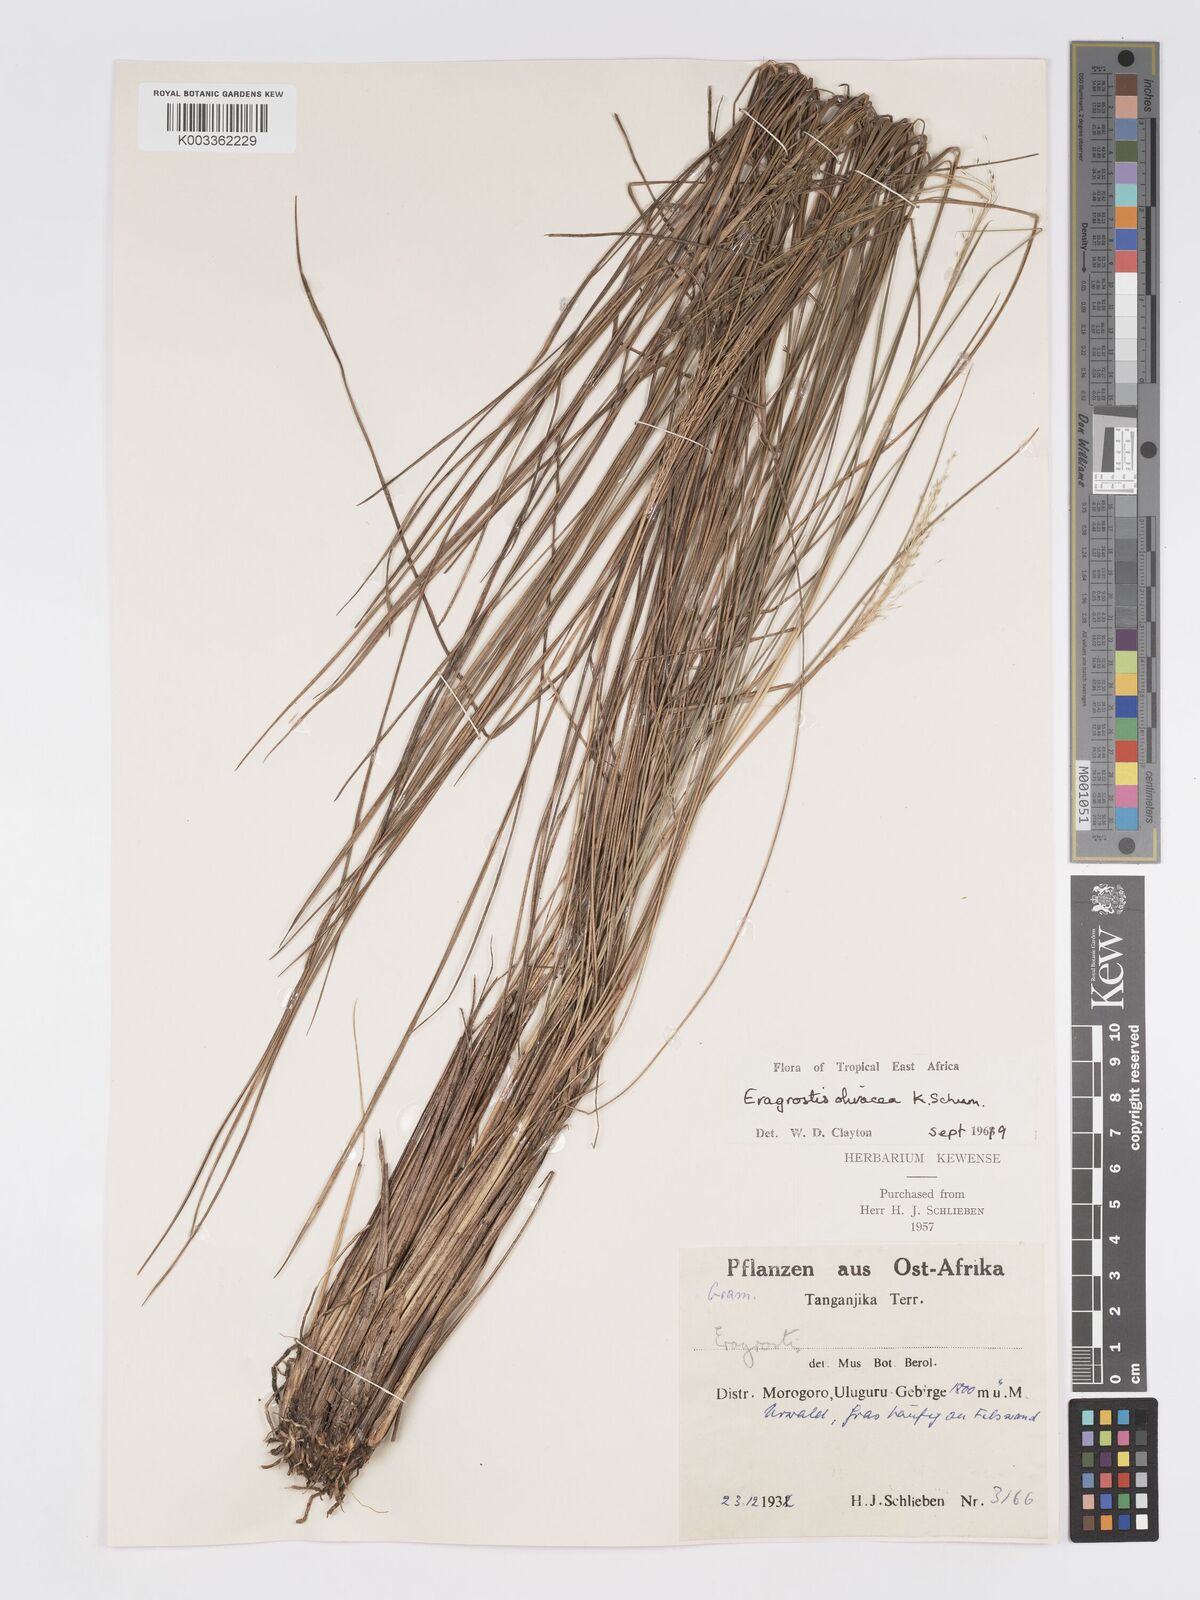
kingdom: Plantae
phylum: Tracheophyta
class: Liliopsida
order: Poales
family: Poaceae
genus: Eragrostis
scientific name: Eragrostis olivacea
